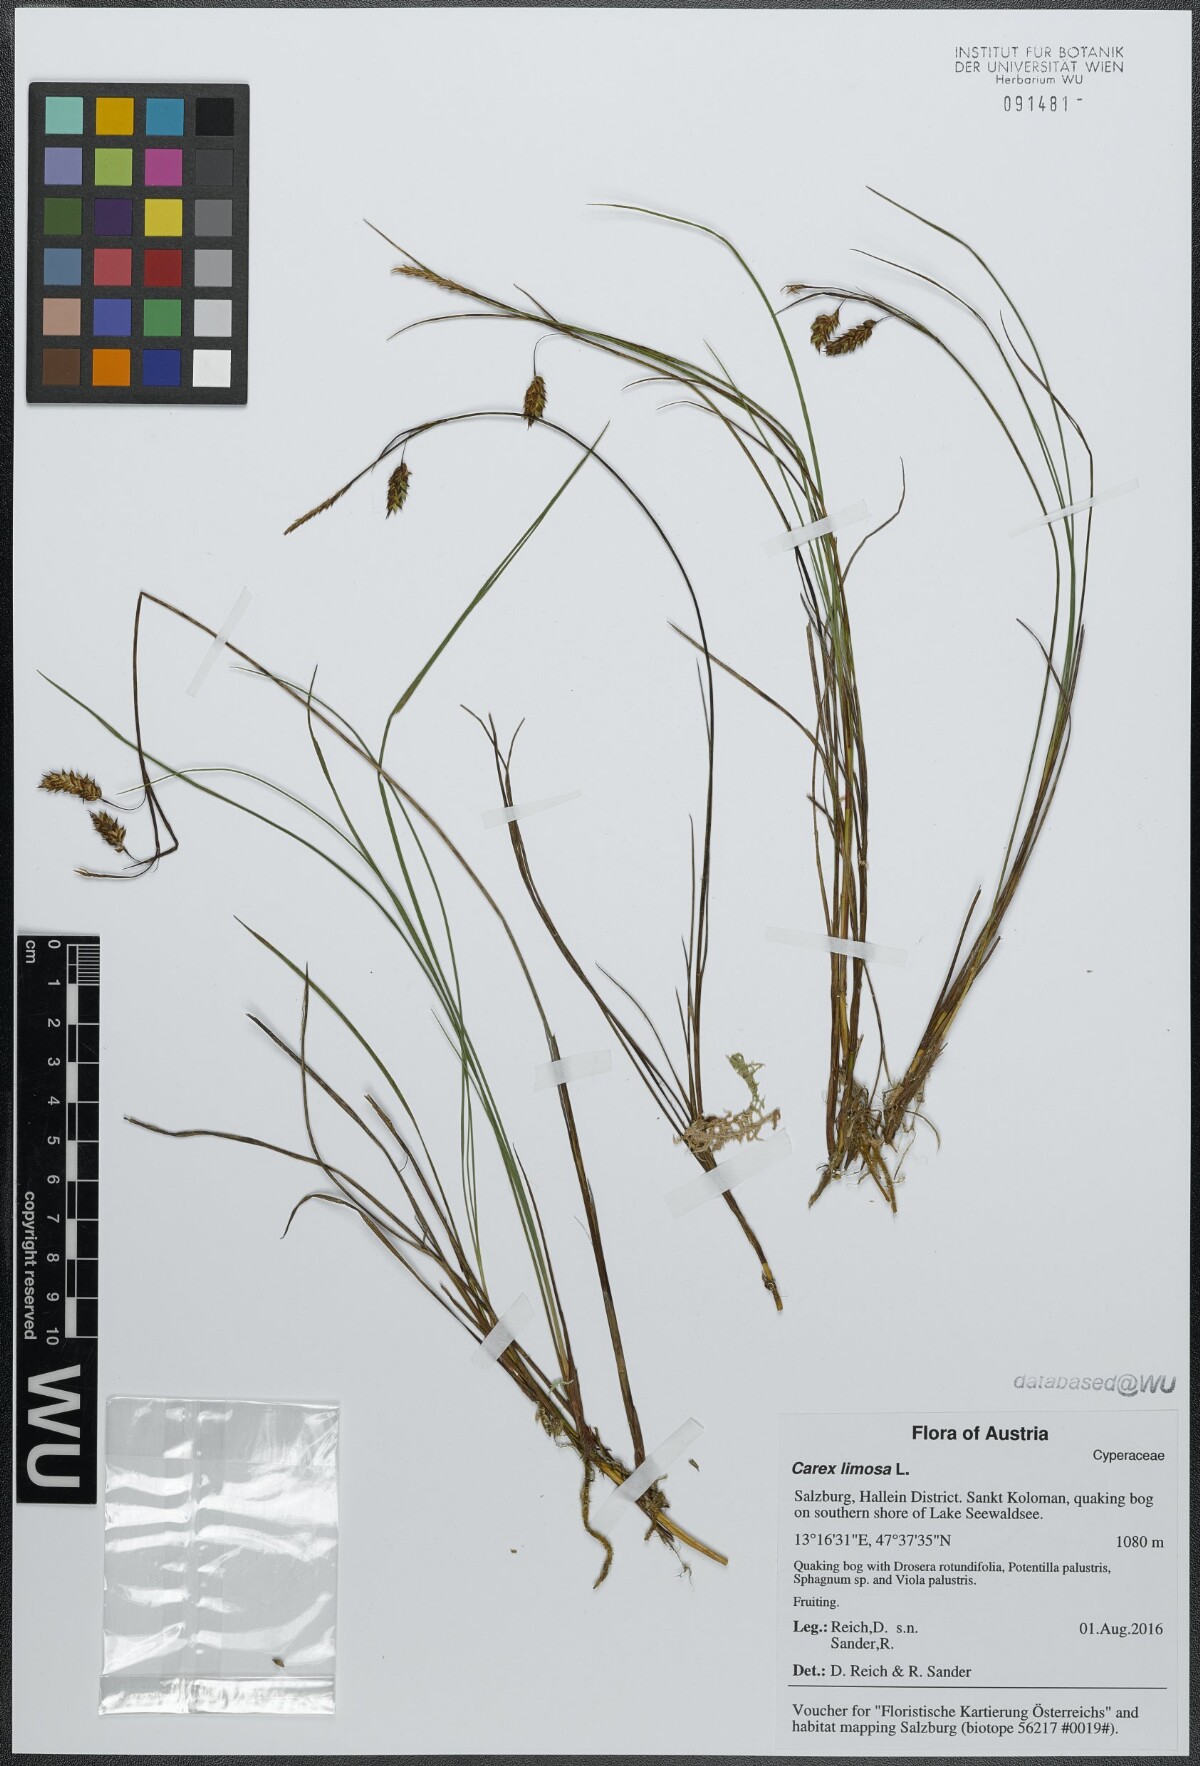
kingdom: Plantae
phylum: Tracheophyta
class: Liliopsida
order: Poales
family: Cyperaceae
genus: Carex
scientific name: Carex limosa
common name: Bog sedge
